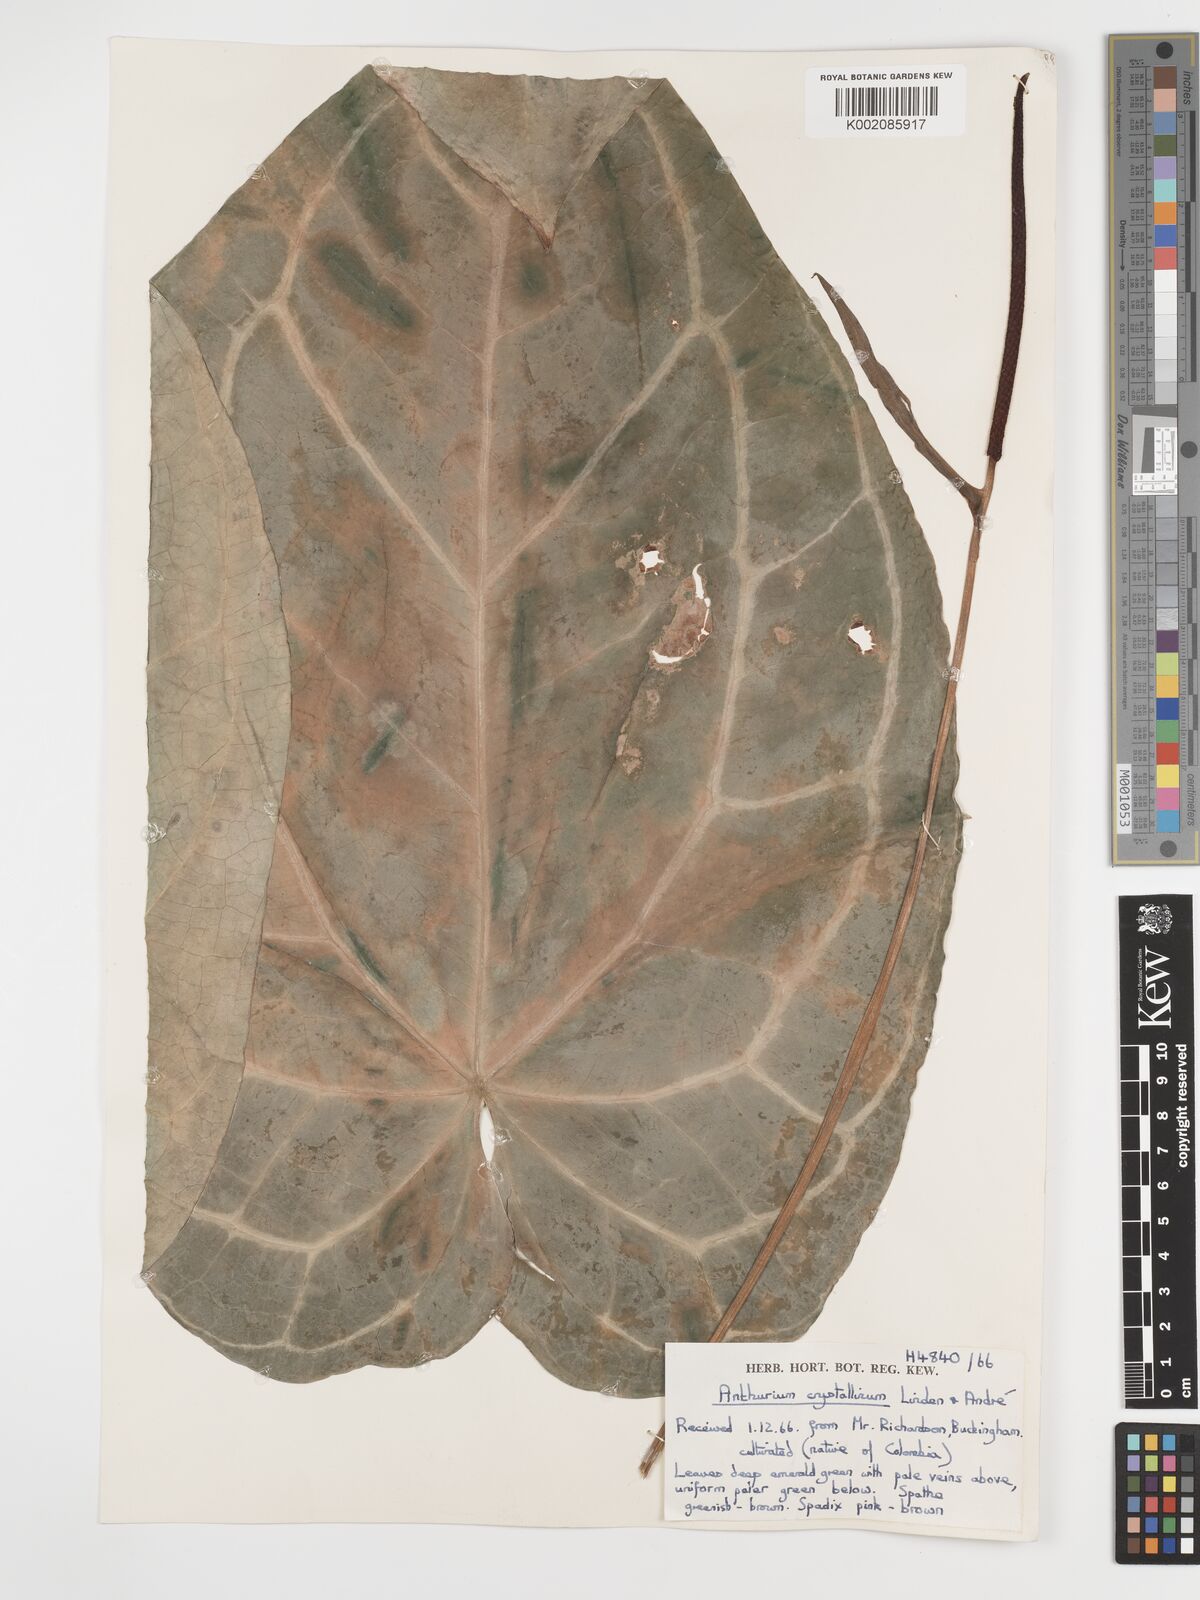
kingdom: Plantae
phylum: Tracheophyta
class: Liliopsida
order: Alismatales
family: Araceae
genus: Anthurium
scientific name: Anthurium crystallinum
